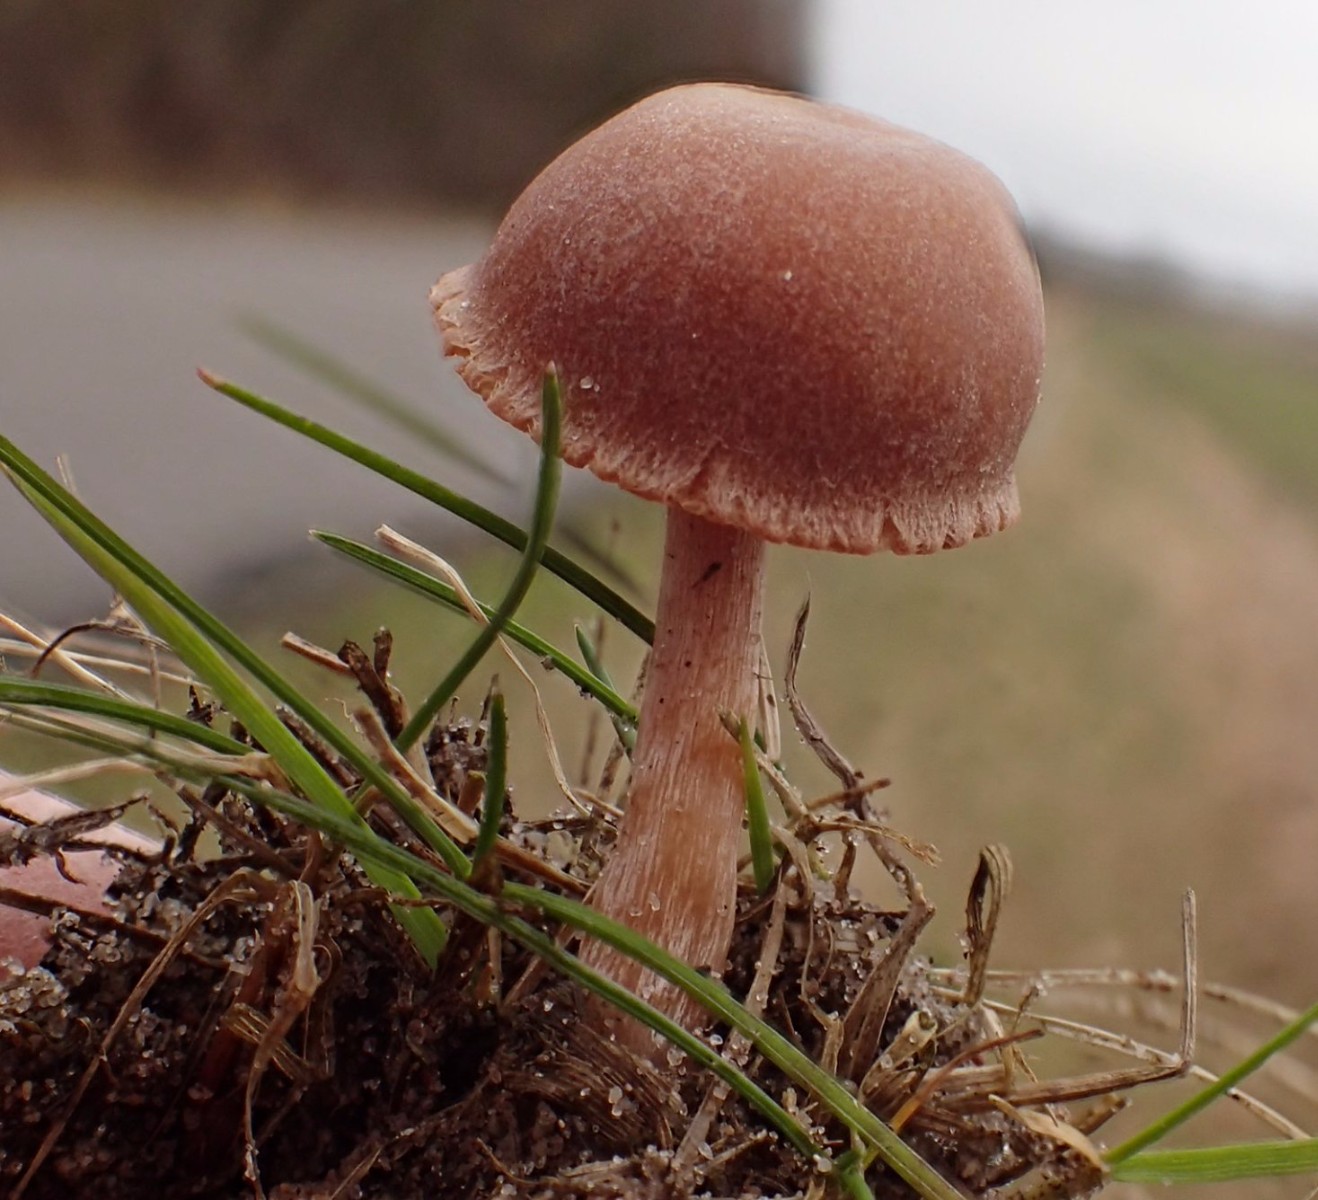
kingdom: Fungi
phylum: Basidiomycota
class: Agaricomycetes
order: Agaricales
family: Tubariaceae
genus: Tubaria
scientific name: Tubaria furfuracea
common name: kliddet fnughat
